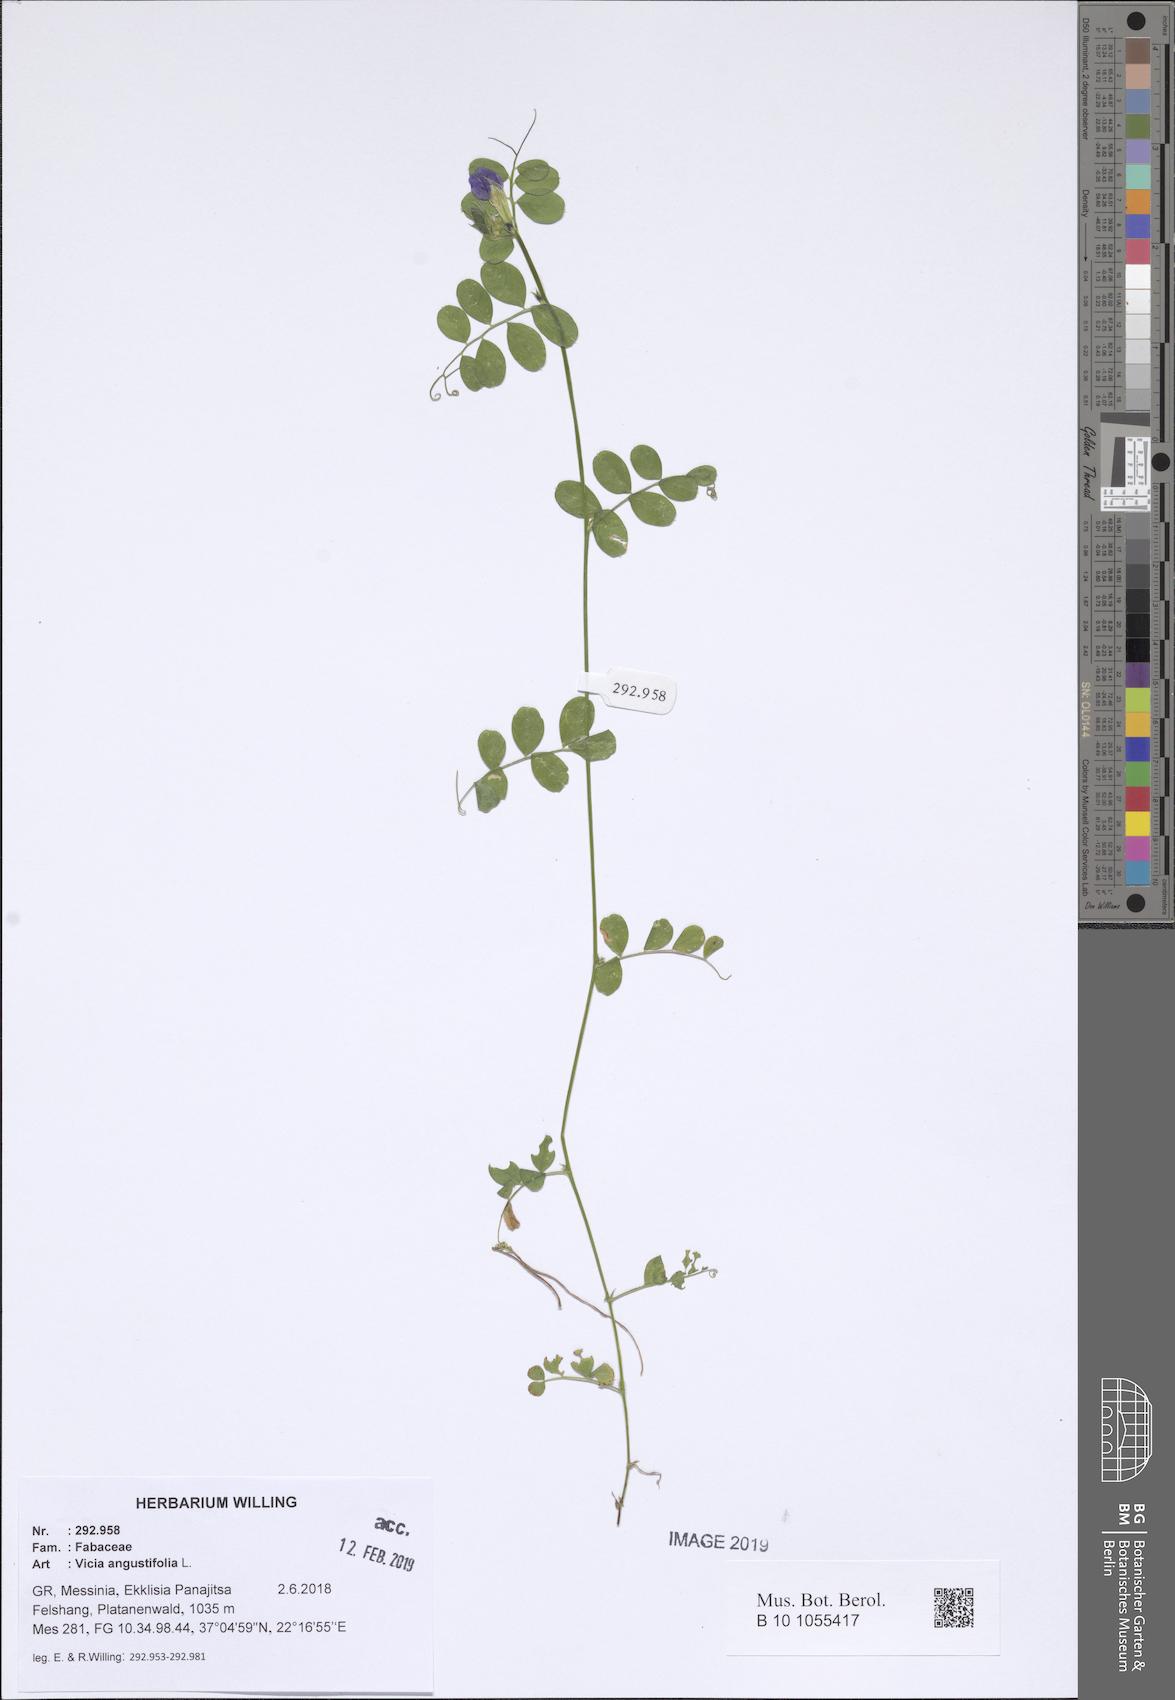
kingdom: Plantae
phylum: Tracheophyta
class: Magnoliopsida
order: Fabales
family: Fabaceae
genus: Vicia
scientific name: Vicia sativa
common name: Garden vetch
